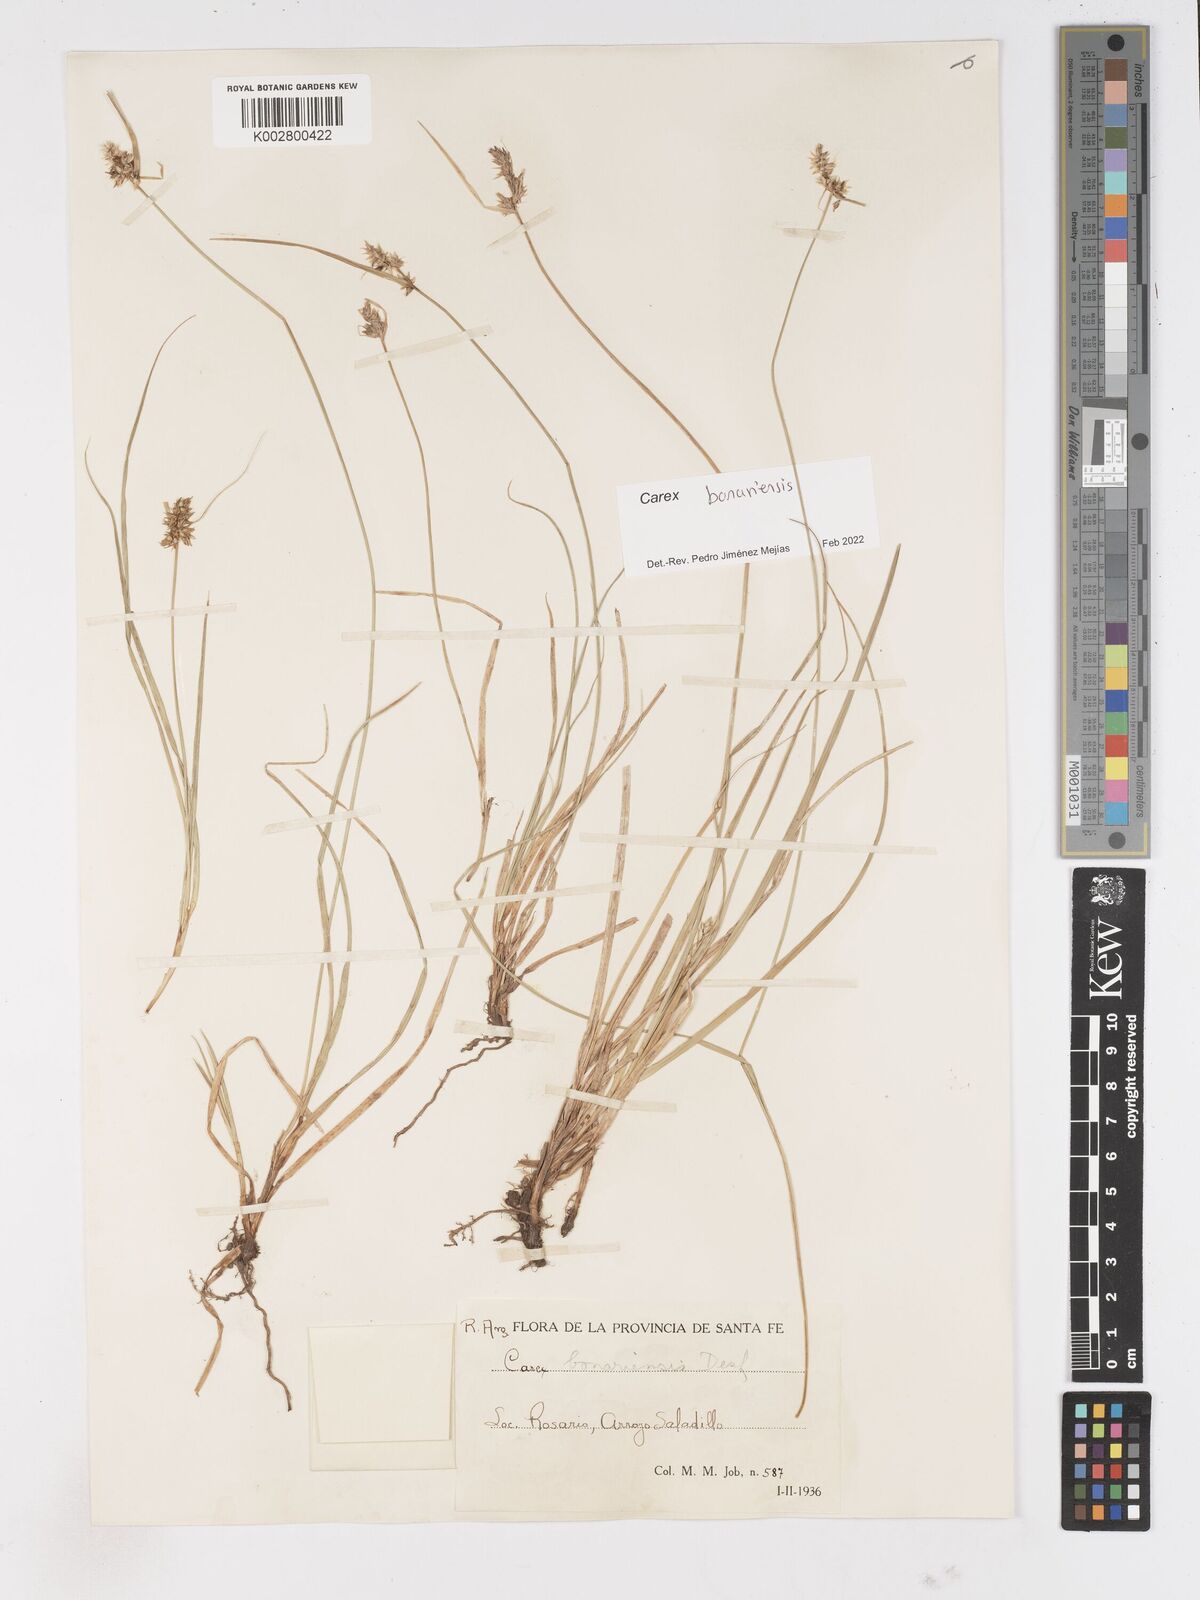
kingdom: Plantae
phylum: Tracheophyta
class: Liliopsida
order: Poales
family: Cyperaceae
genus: Carex
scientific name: Carex bonariensis
